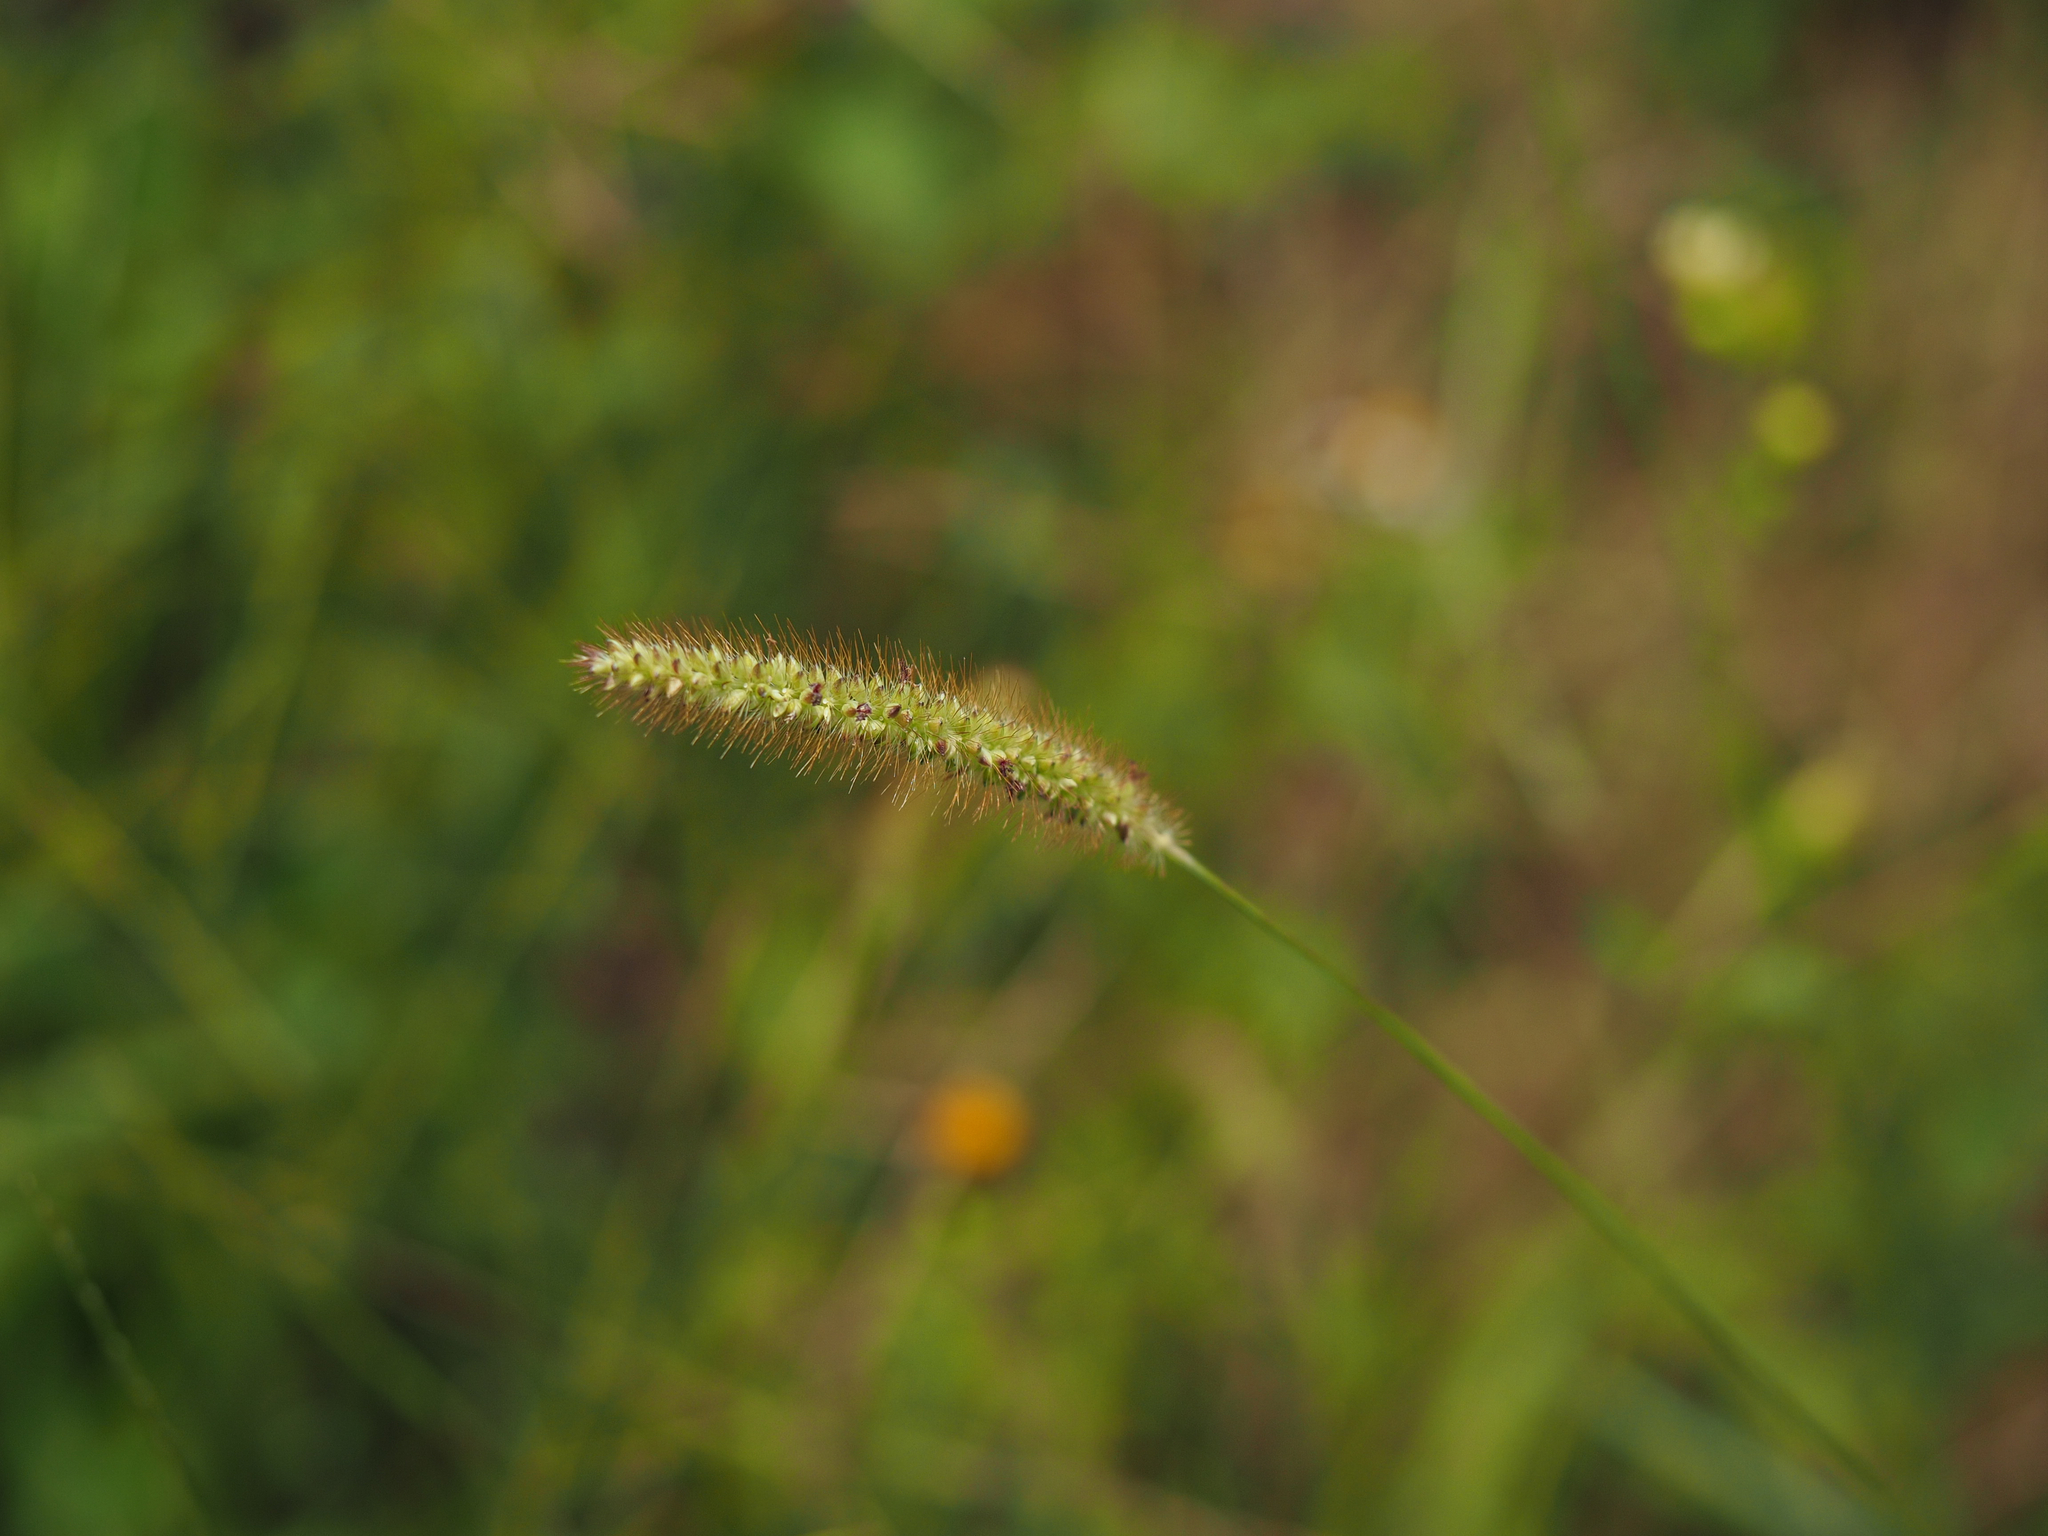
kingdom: Plantae
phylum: Tracheophyta
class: Liliopsida
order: Poales
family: Poaceae
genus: Setaria
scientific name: Setaria parviflora
